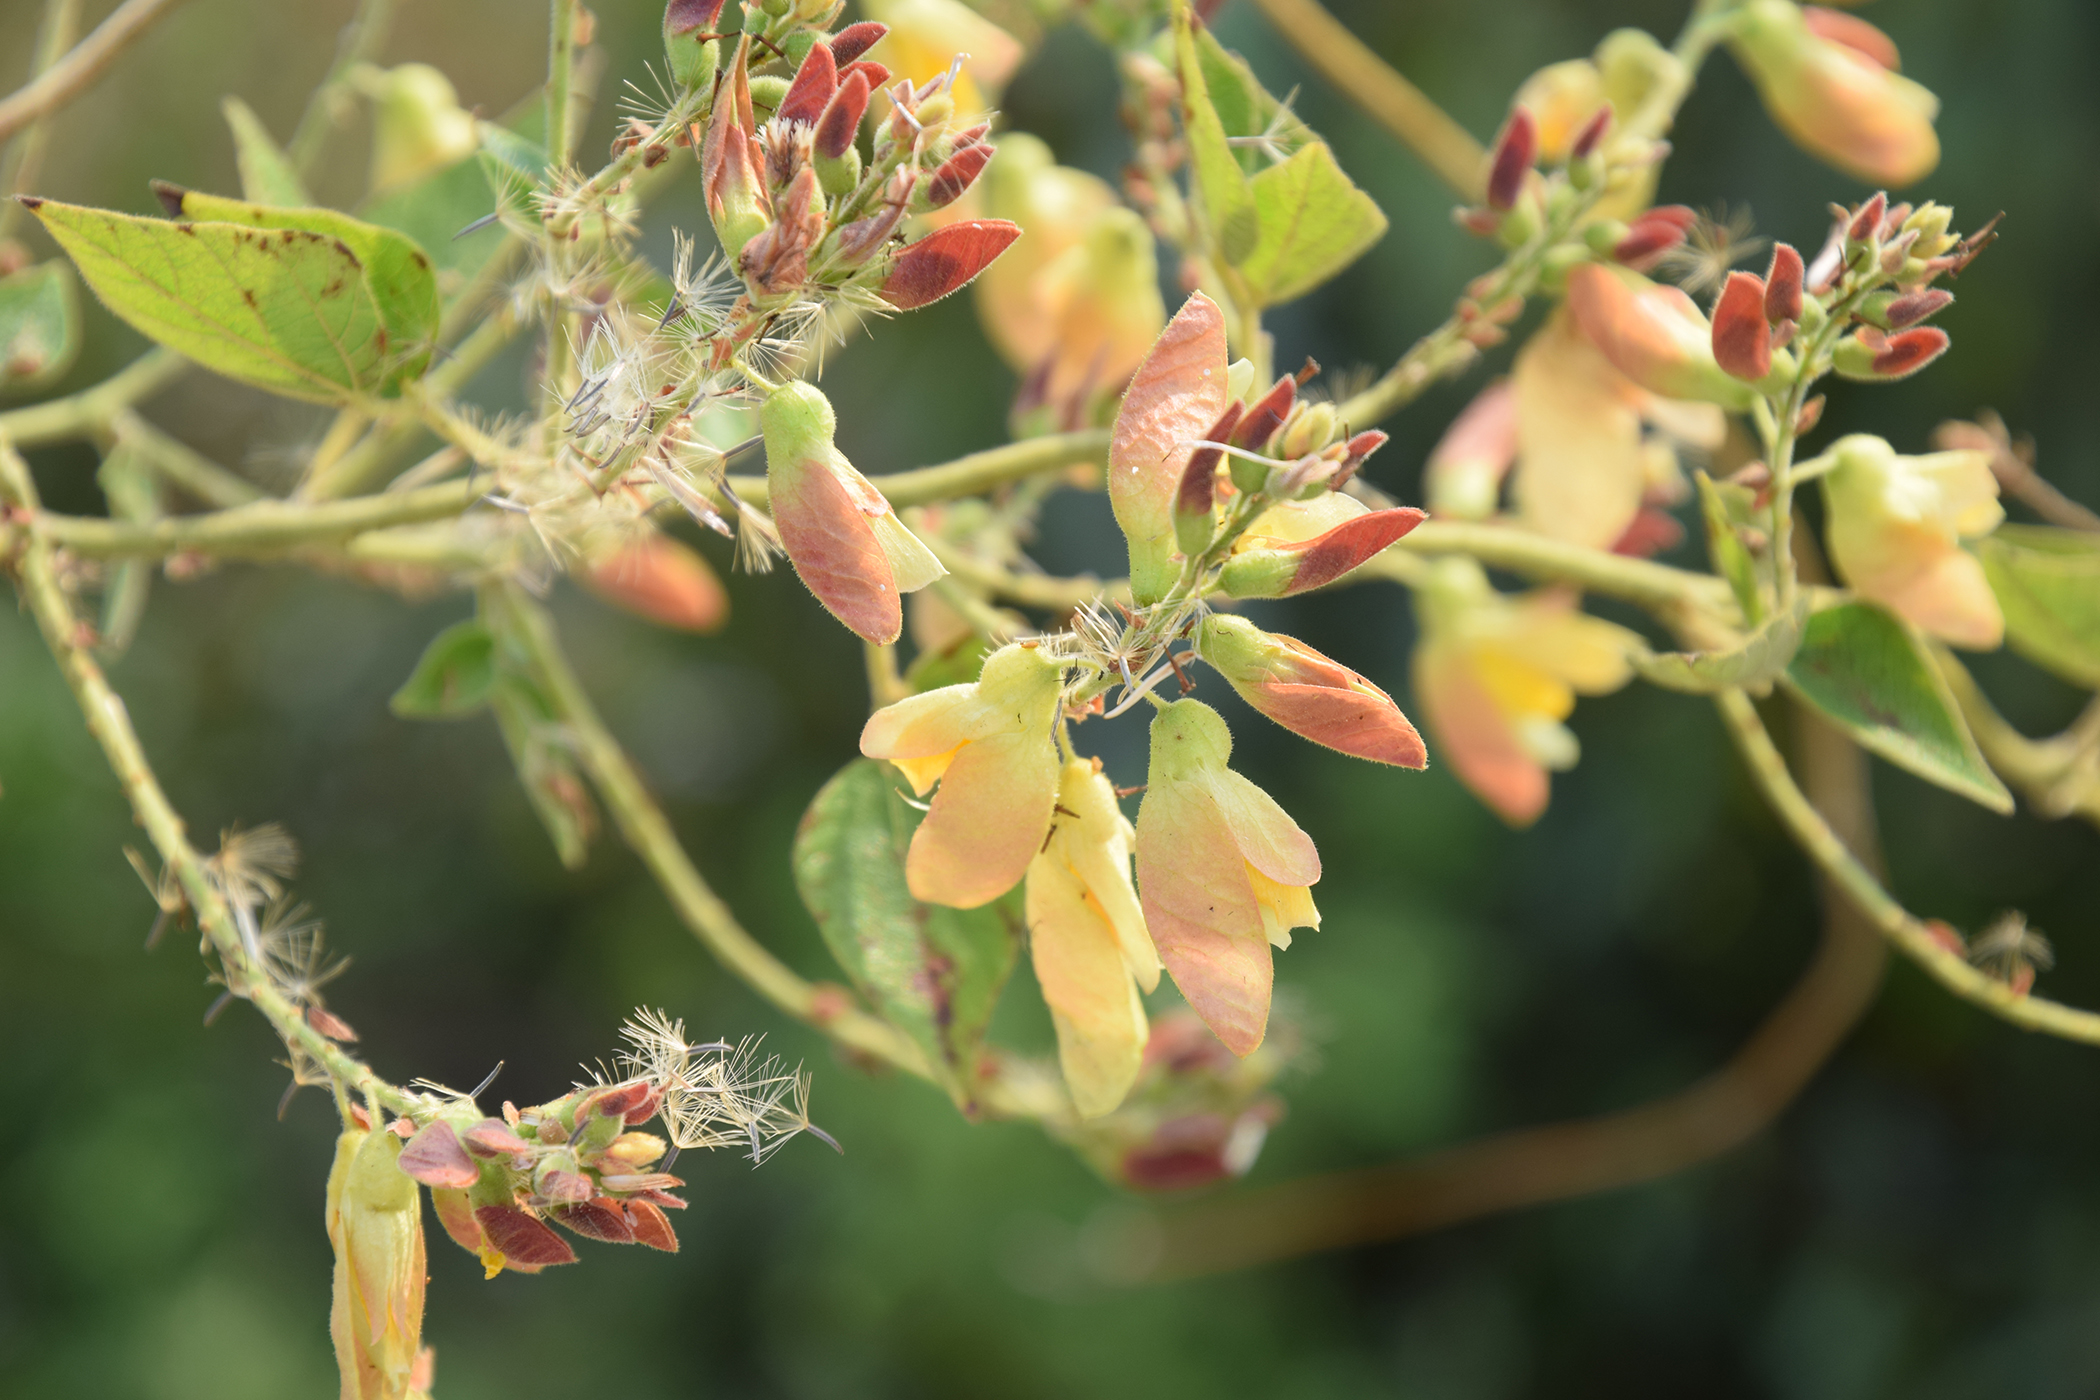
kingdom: Plantae
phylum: Tracheophyta
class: Magnoliopsida
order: Fabales
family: Fabaceae
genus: Paracalyx
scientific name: Paracalyx scariosus
